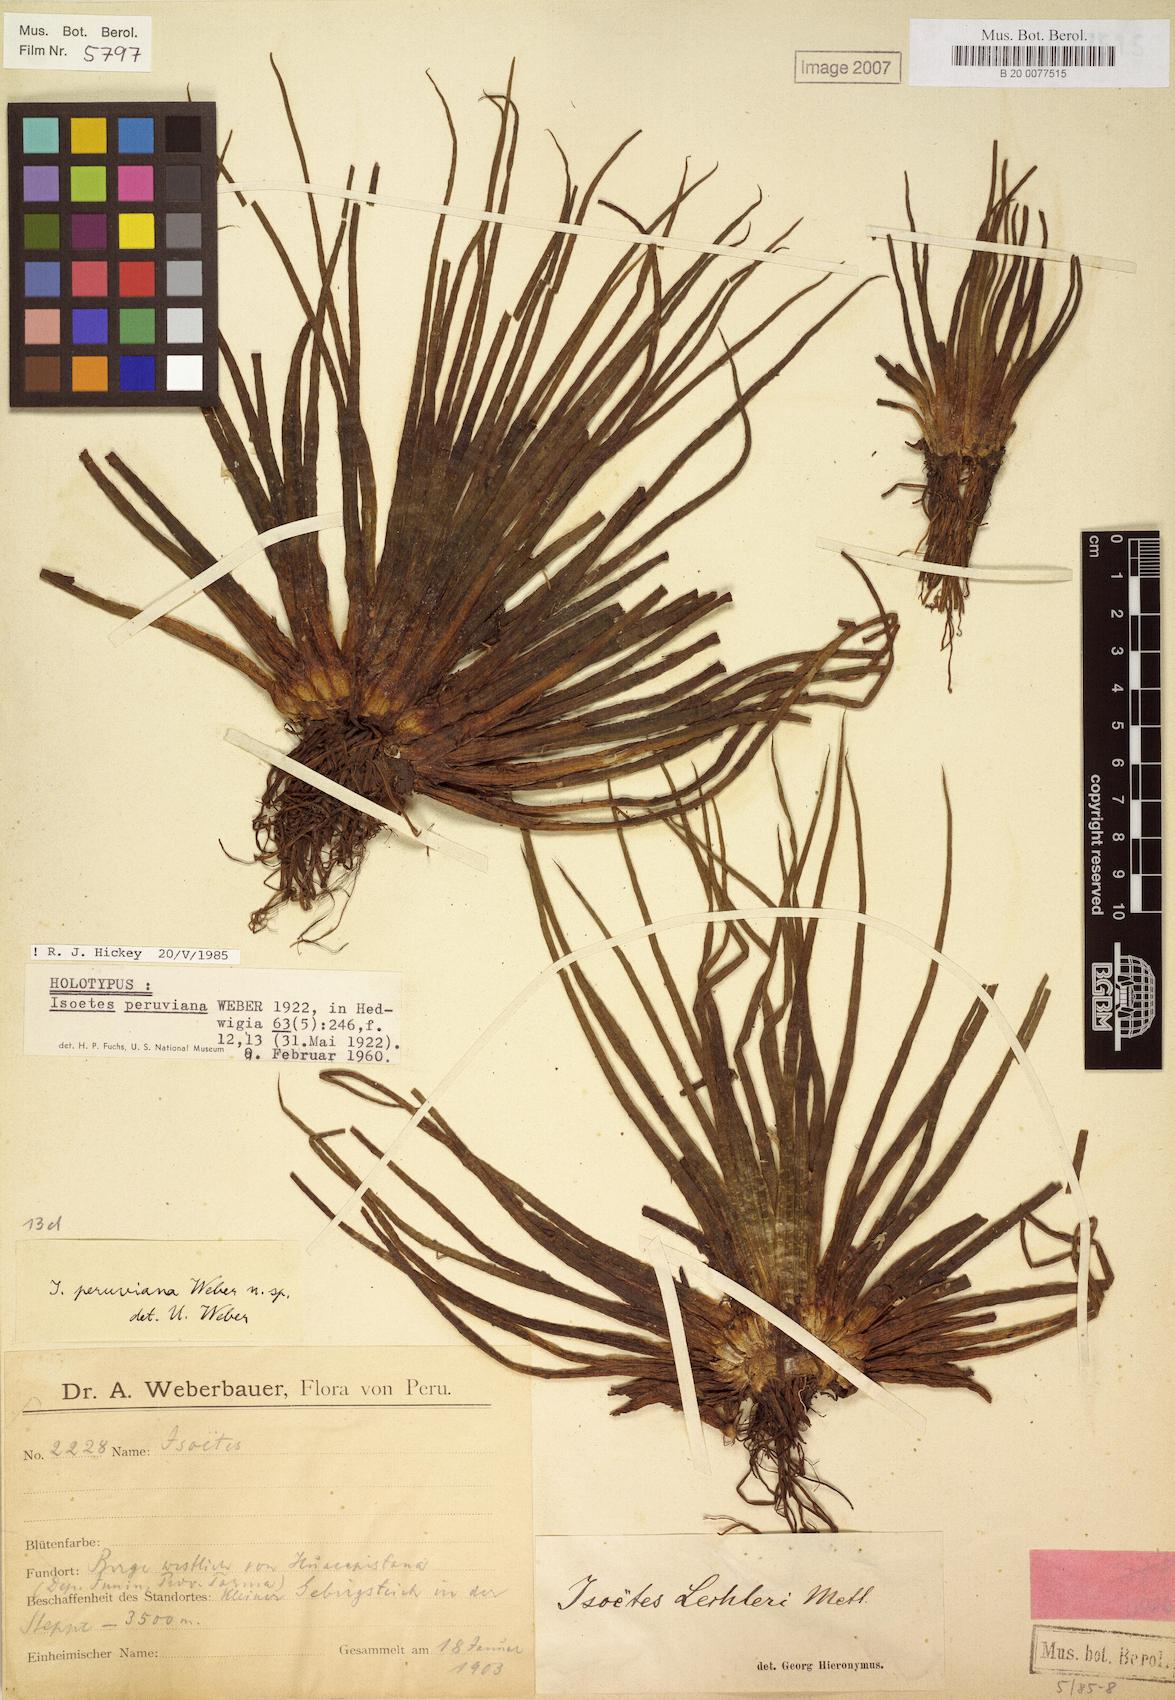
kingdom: Plantae
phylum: Tracheophyta
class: Lycopodiopsida
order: Isoetales
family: Isoetaceae
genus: Isoetes
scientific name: Isoetes lechleri
